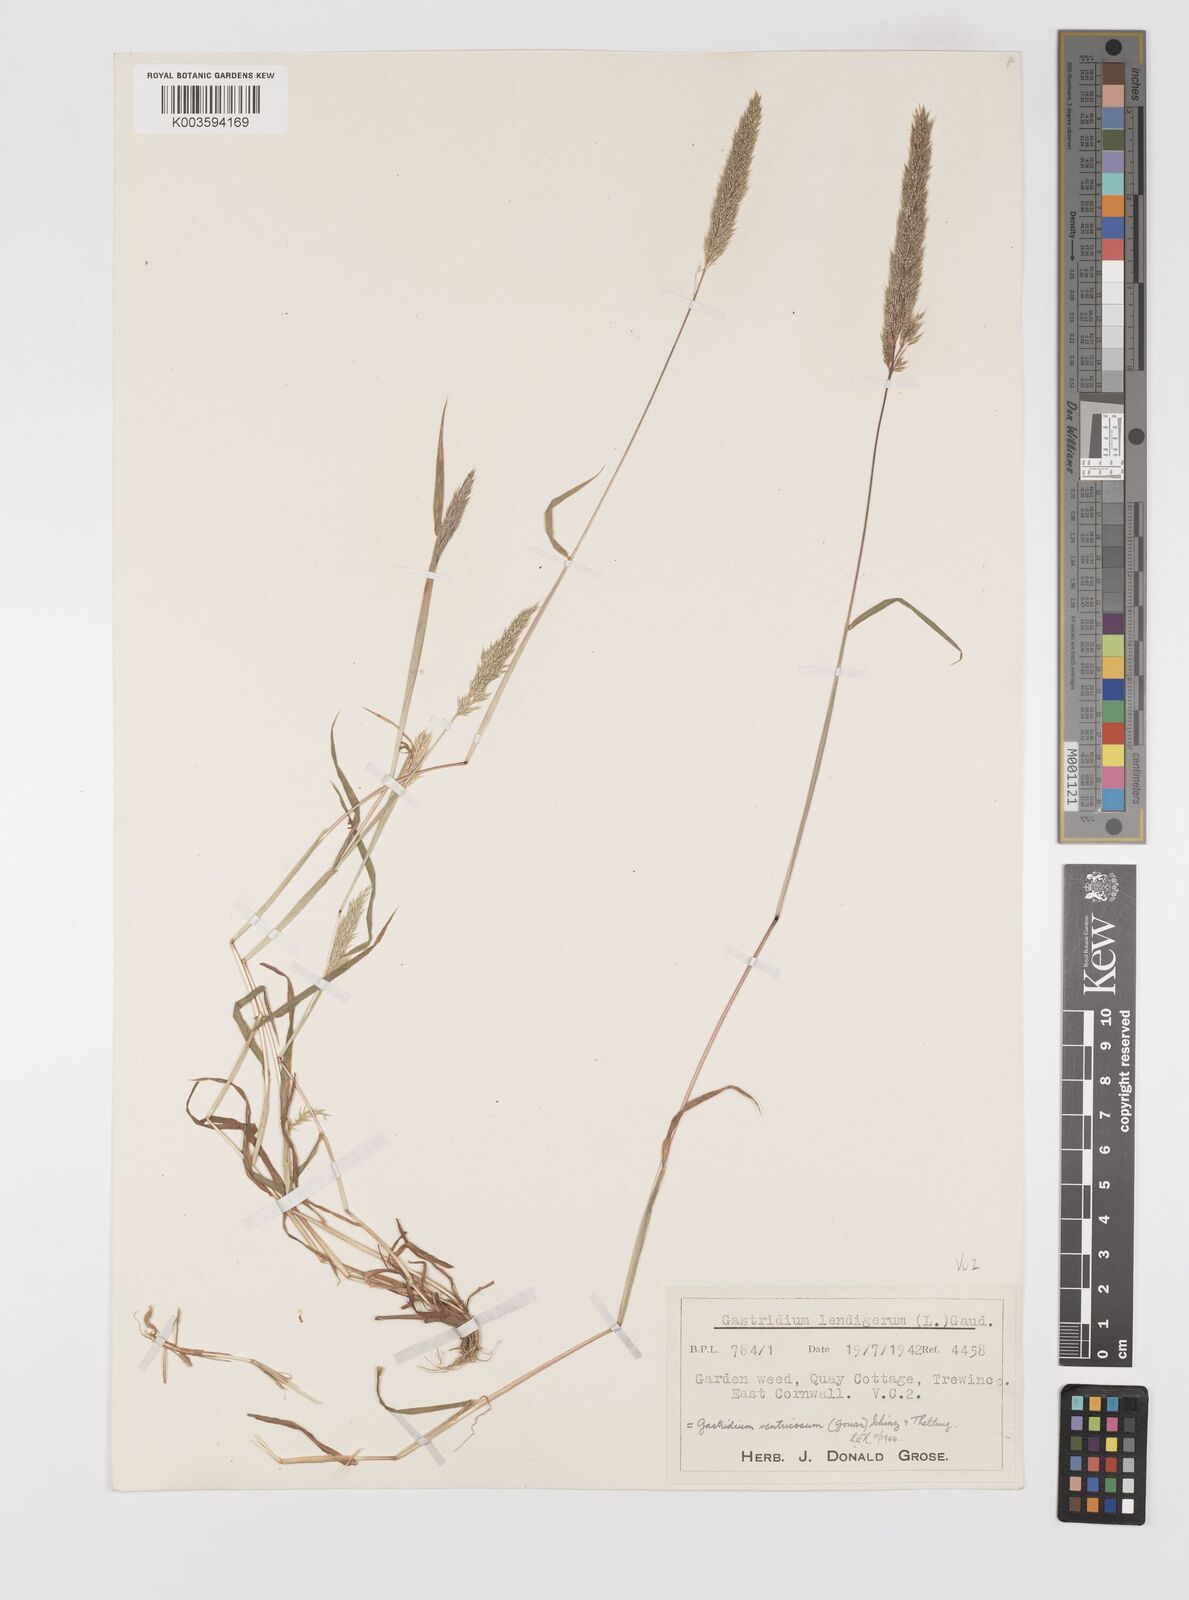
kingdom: Plantae
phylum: Tracheophyta
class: Liliopsida
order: Poales
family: Poaceae
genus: Gastridium
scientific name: Gastridium ventricosum
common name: Nit-grass
